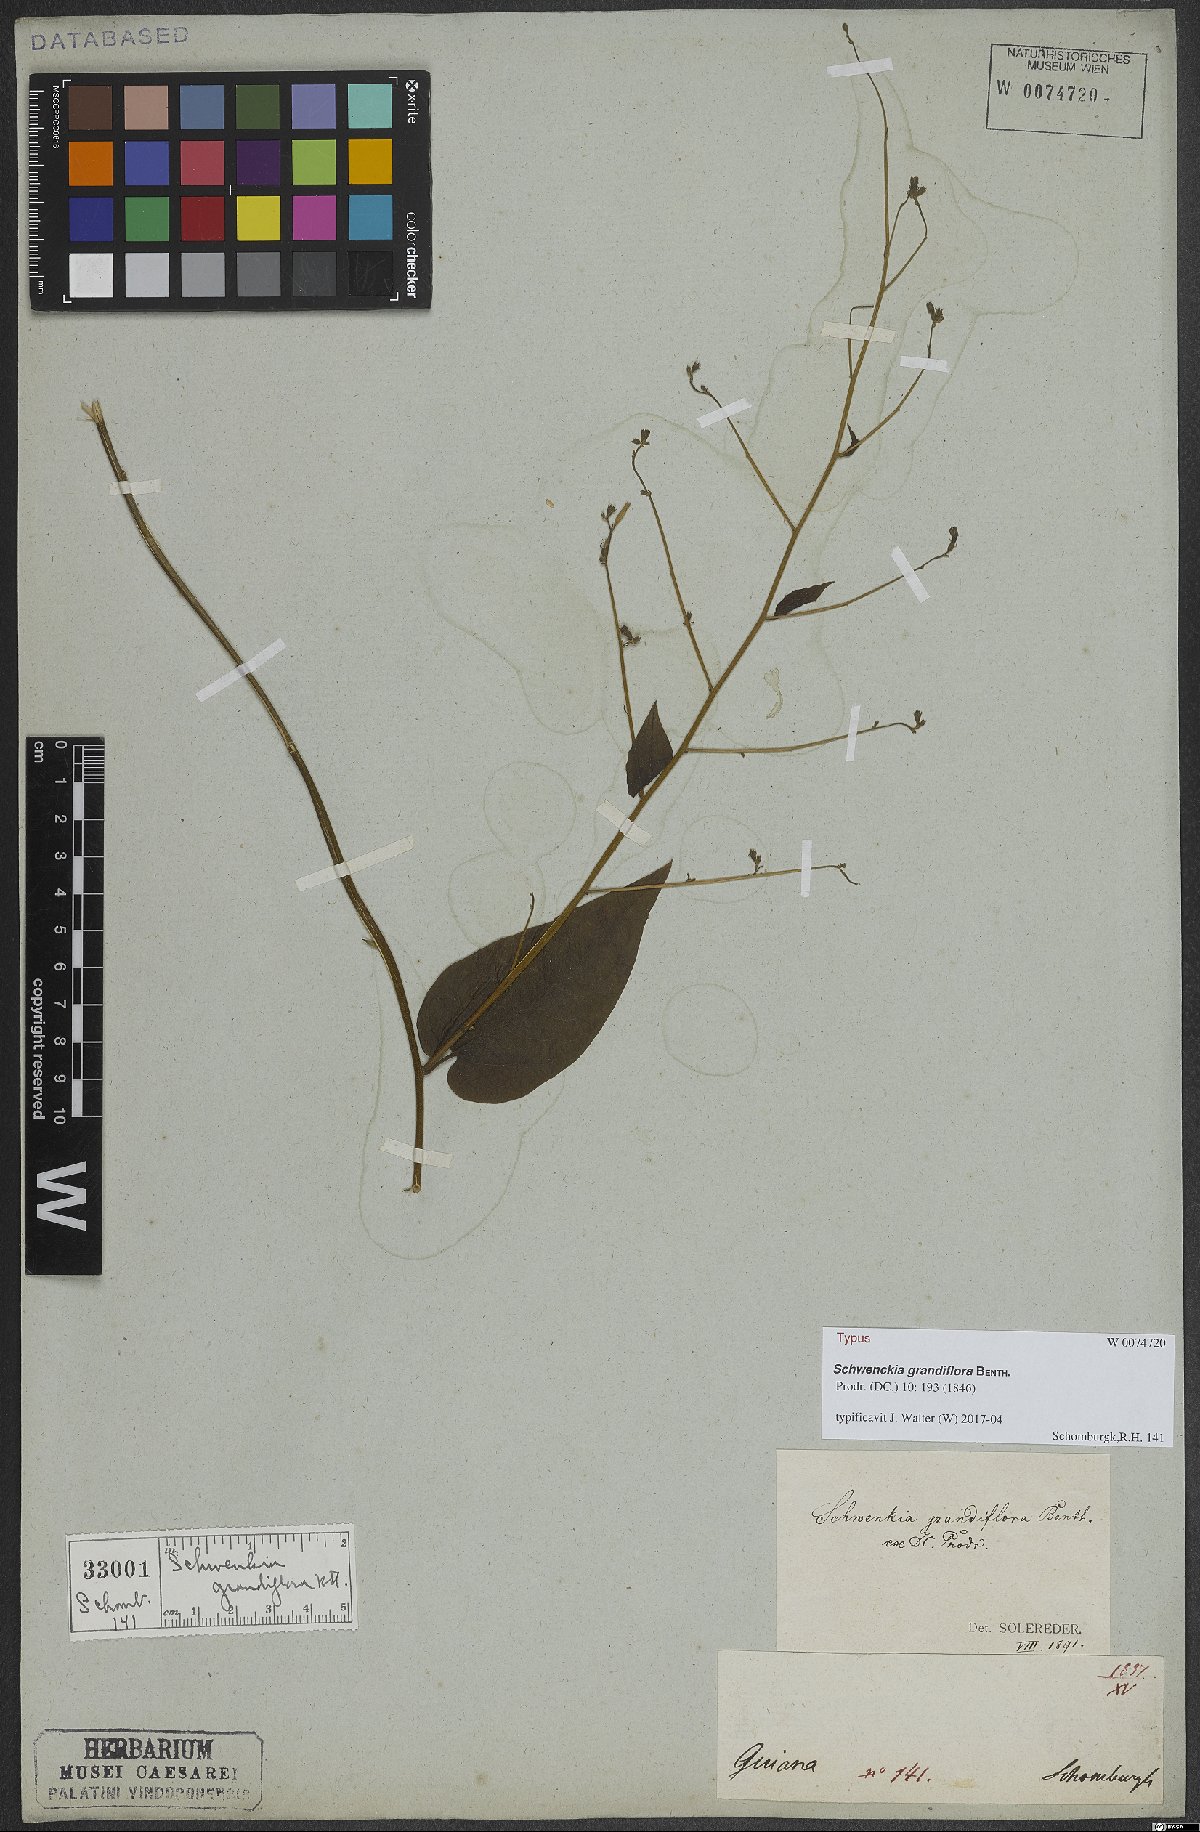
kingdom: Plantae
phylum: Tracheophyta
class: Magnoliopsida
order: Solanales
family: Solanaceae
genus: Schwenckia
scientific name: Schwenckia grandiflora
